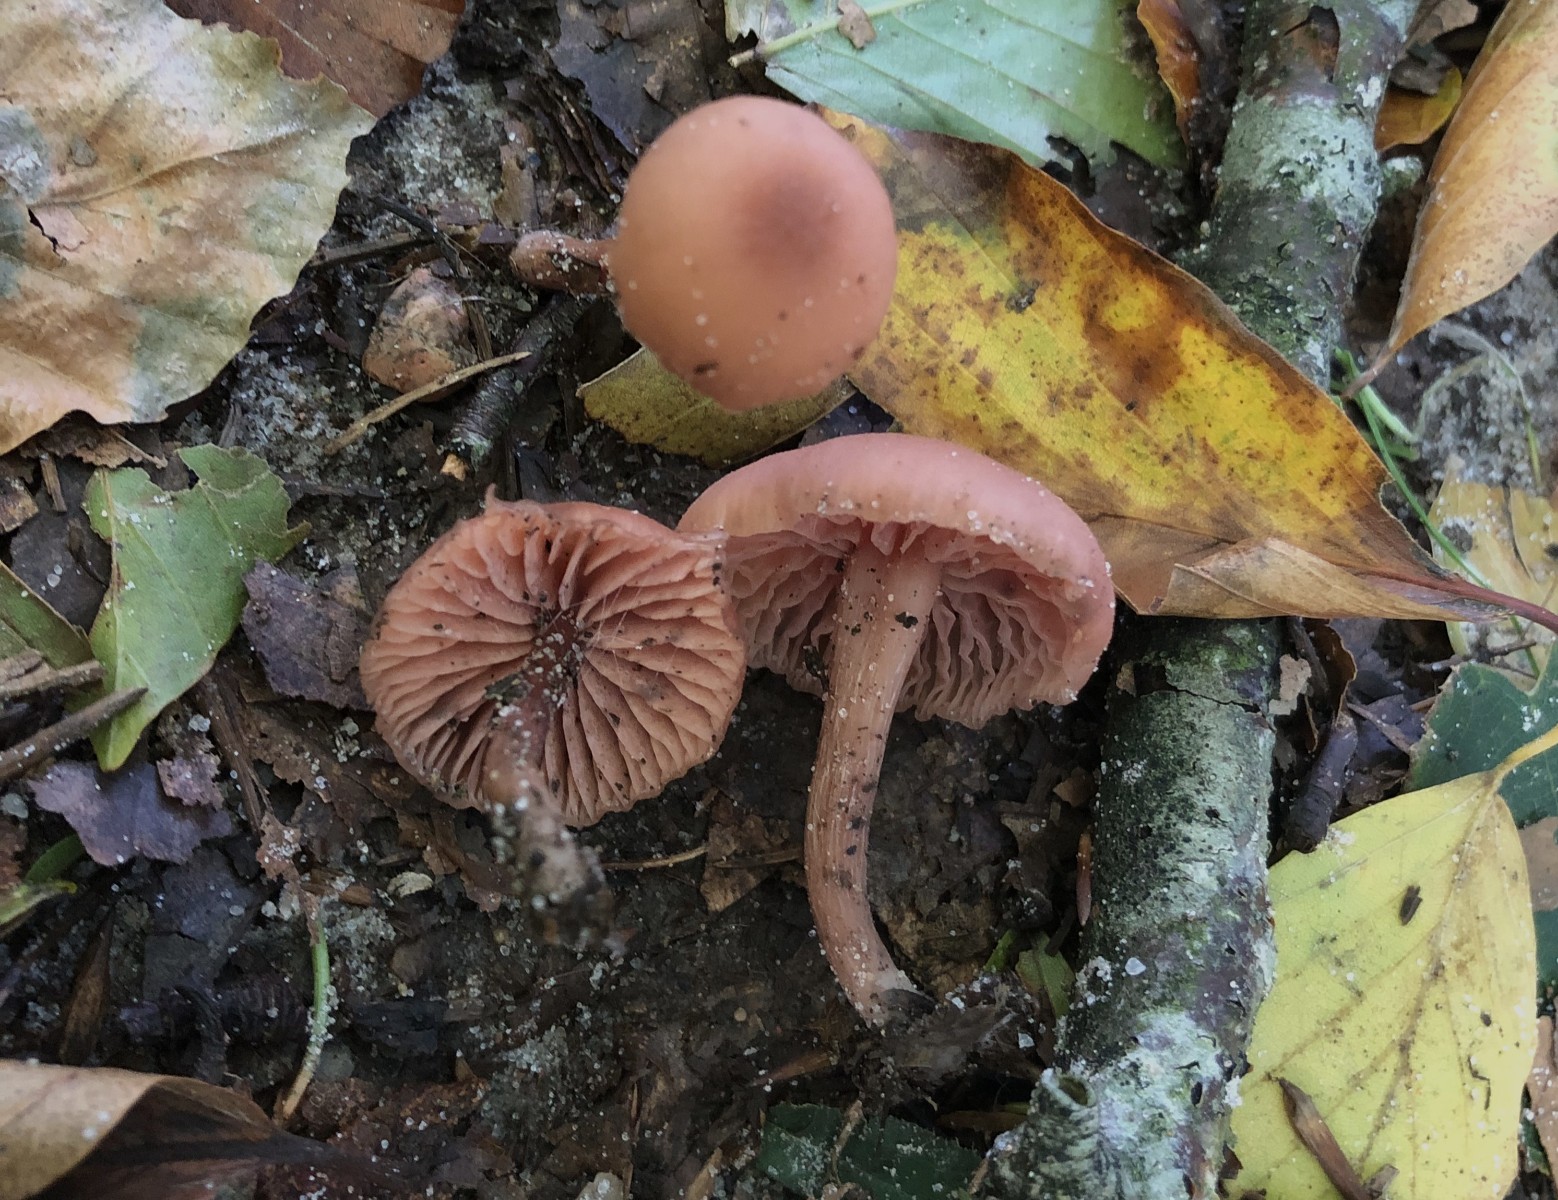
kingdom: Fungi
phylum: Basidiomycota
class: Agaricomycetes
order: Agaricales
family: Hydnangiaceae
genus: Laccaria
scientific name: Laccaria laccata
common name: rød ametysthat
